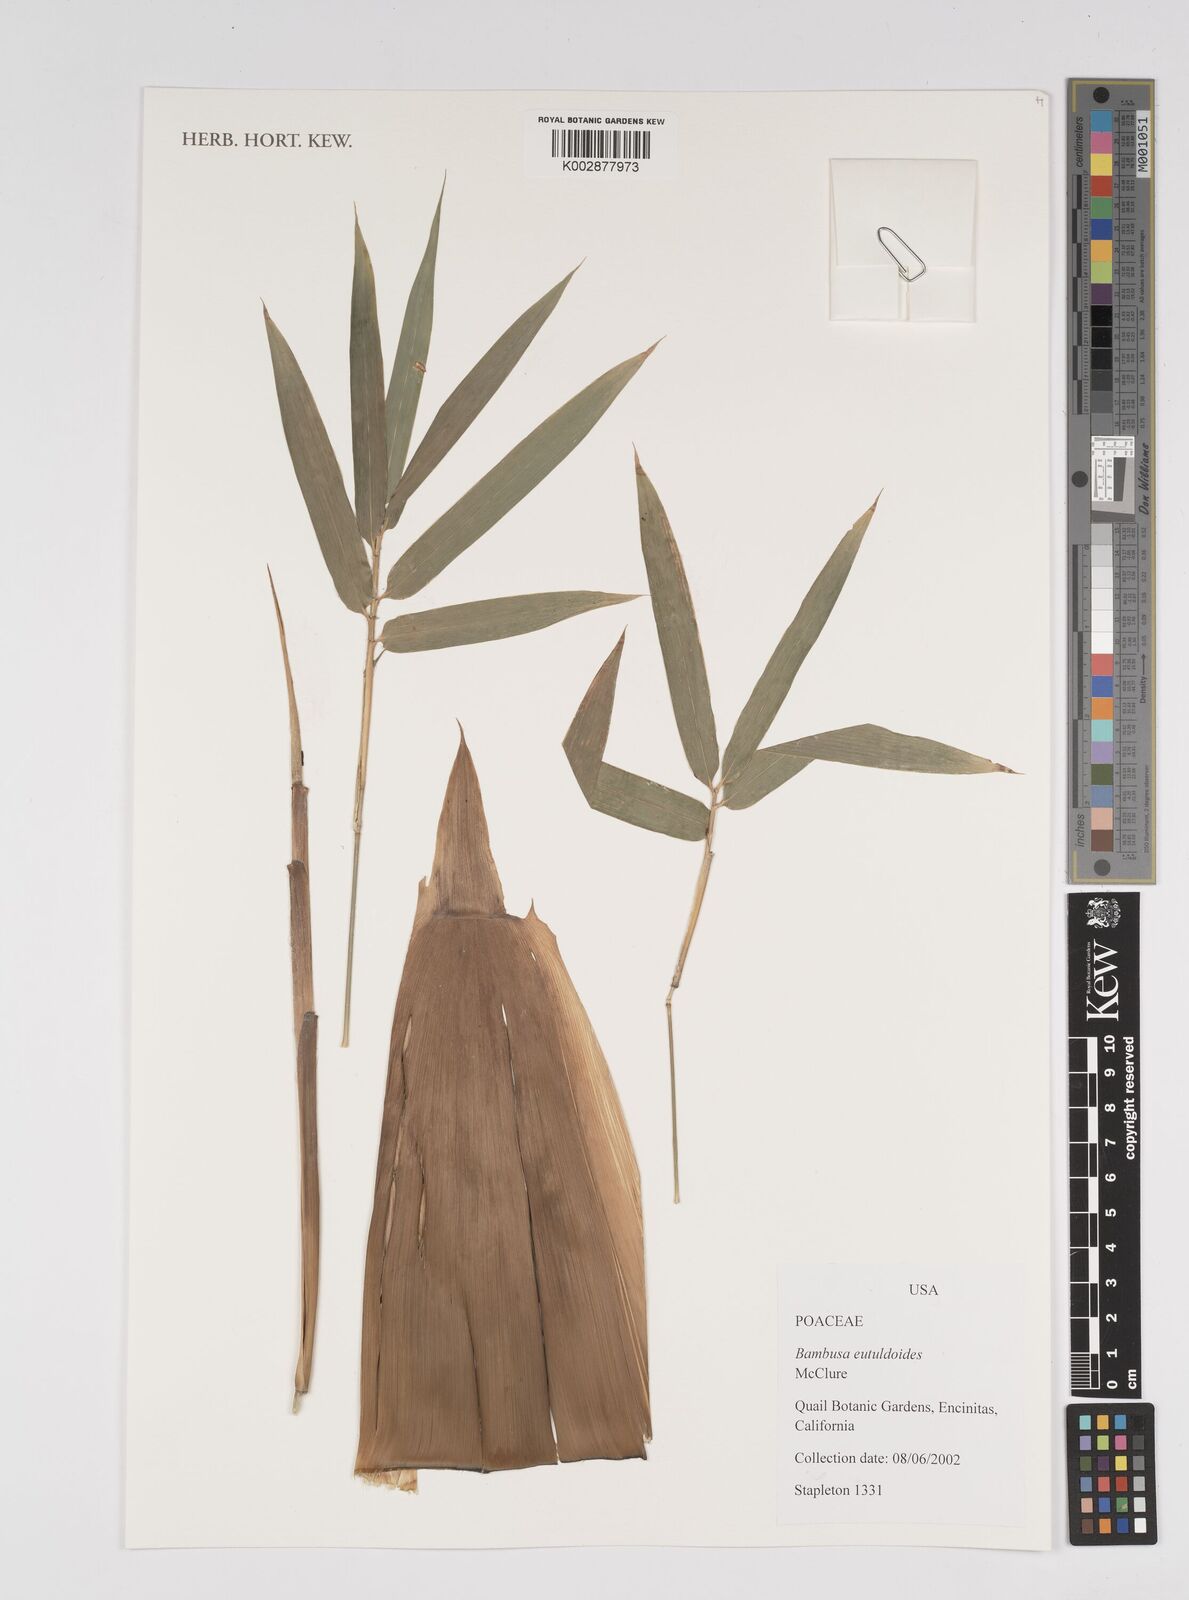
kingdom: Plantae
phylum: Tracheophyta
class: Liliopsida
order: Poales
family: Poaceae
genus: Bambusa
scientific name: Bambusa eutuldoides
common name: Dai ngan bamboo
